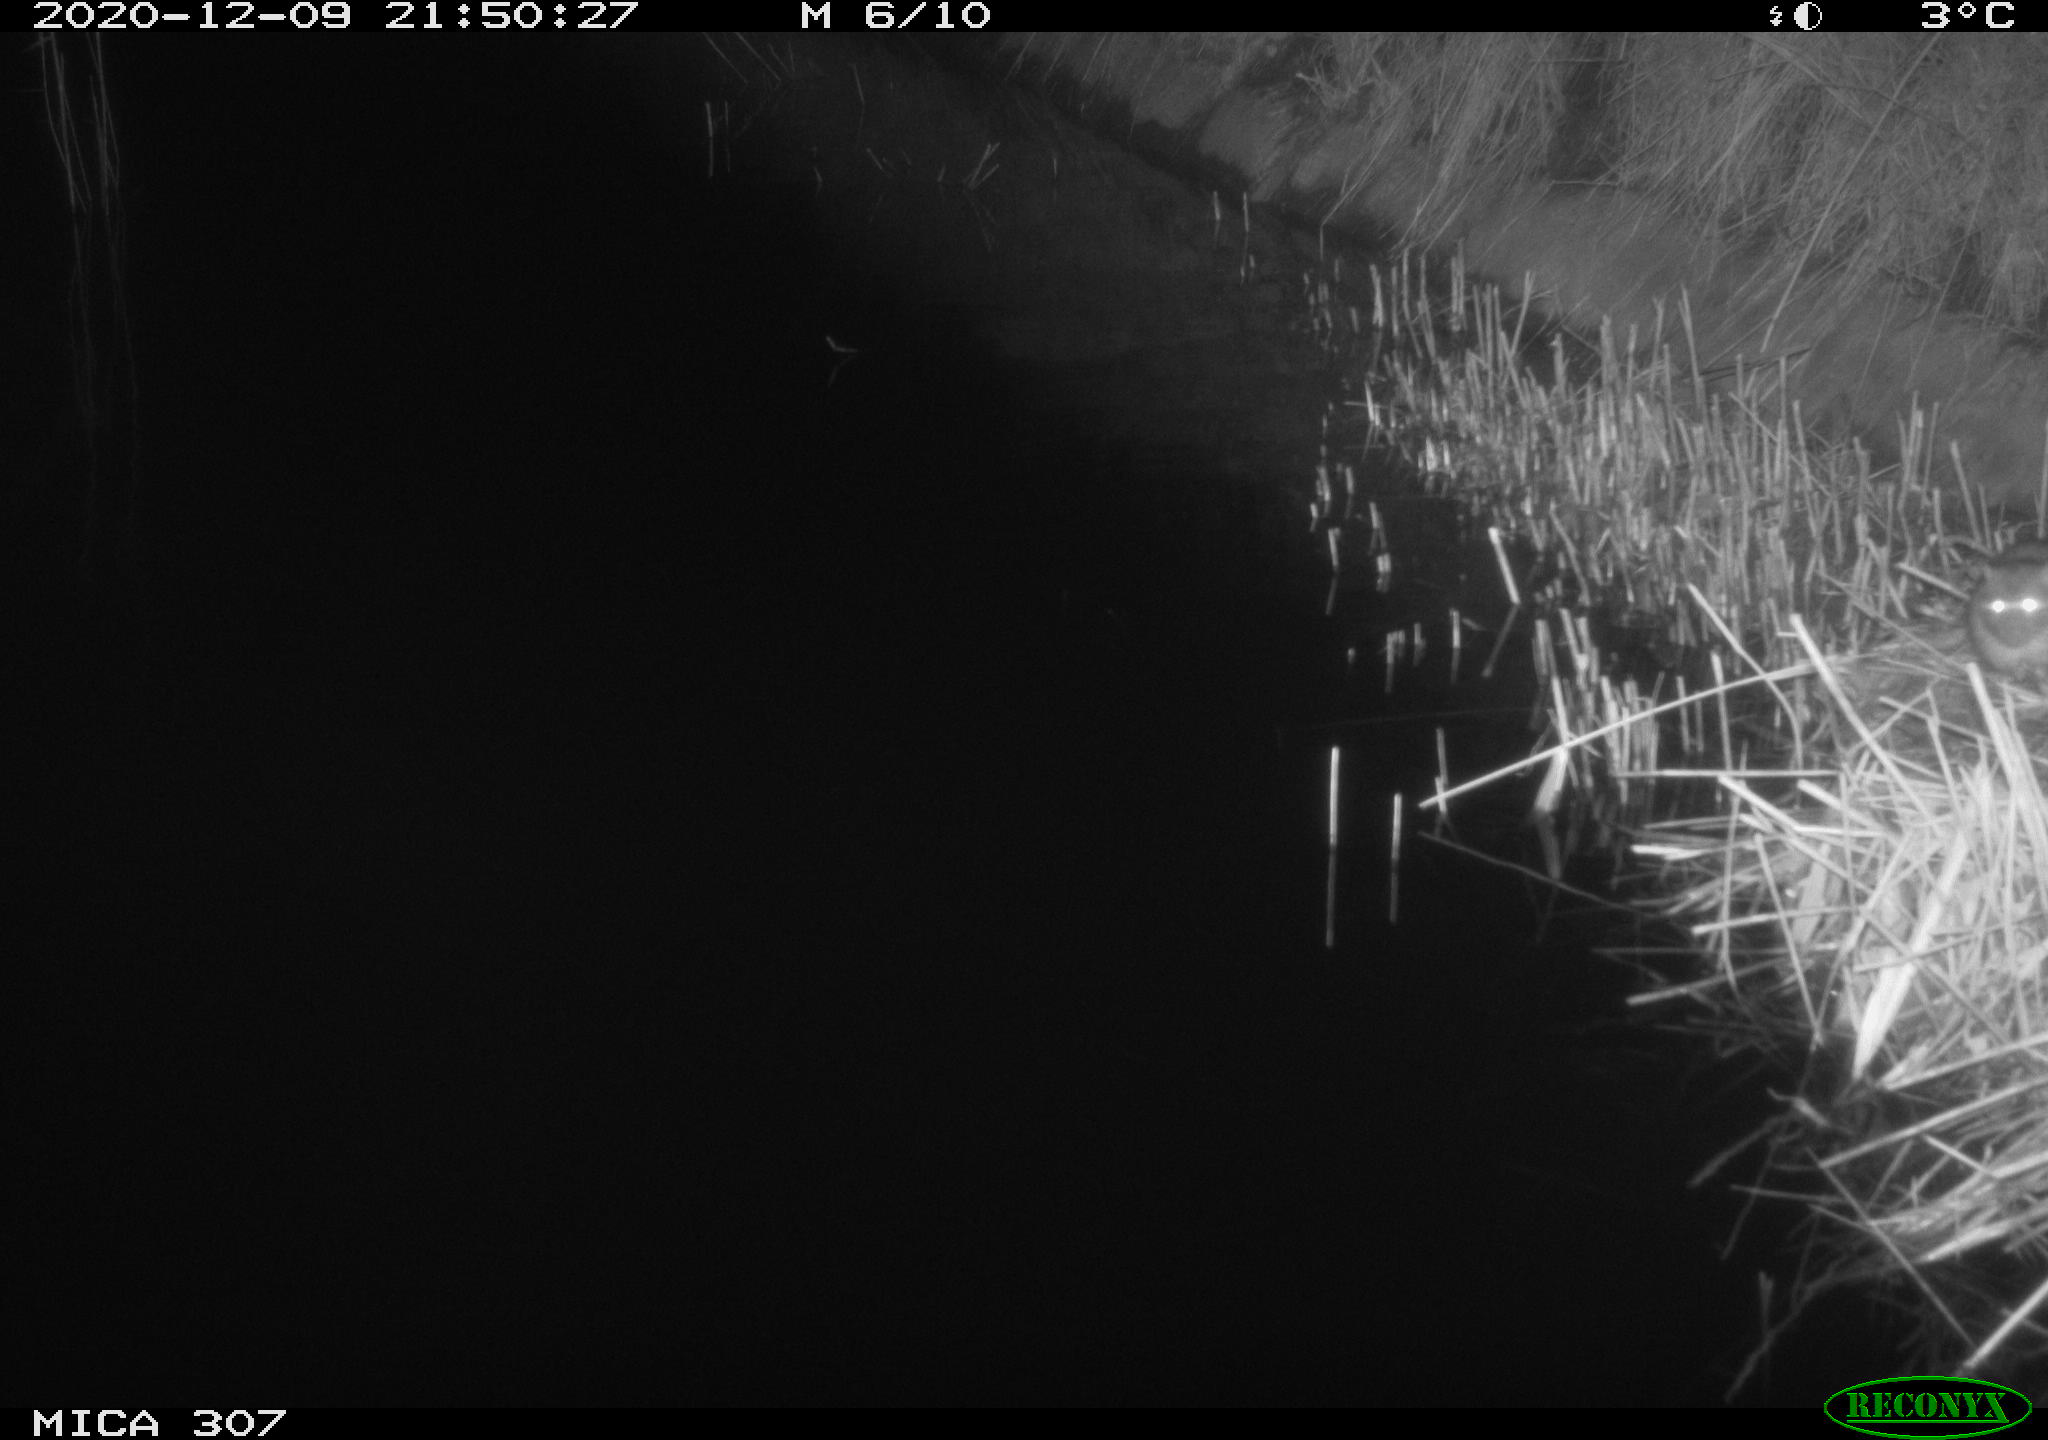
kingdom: Animalia
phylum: Chordata
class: Mammalia
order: Rodentia
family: Muridae
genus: Rattus
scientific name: Rattus norvegicus
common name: Brown rat
